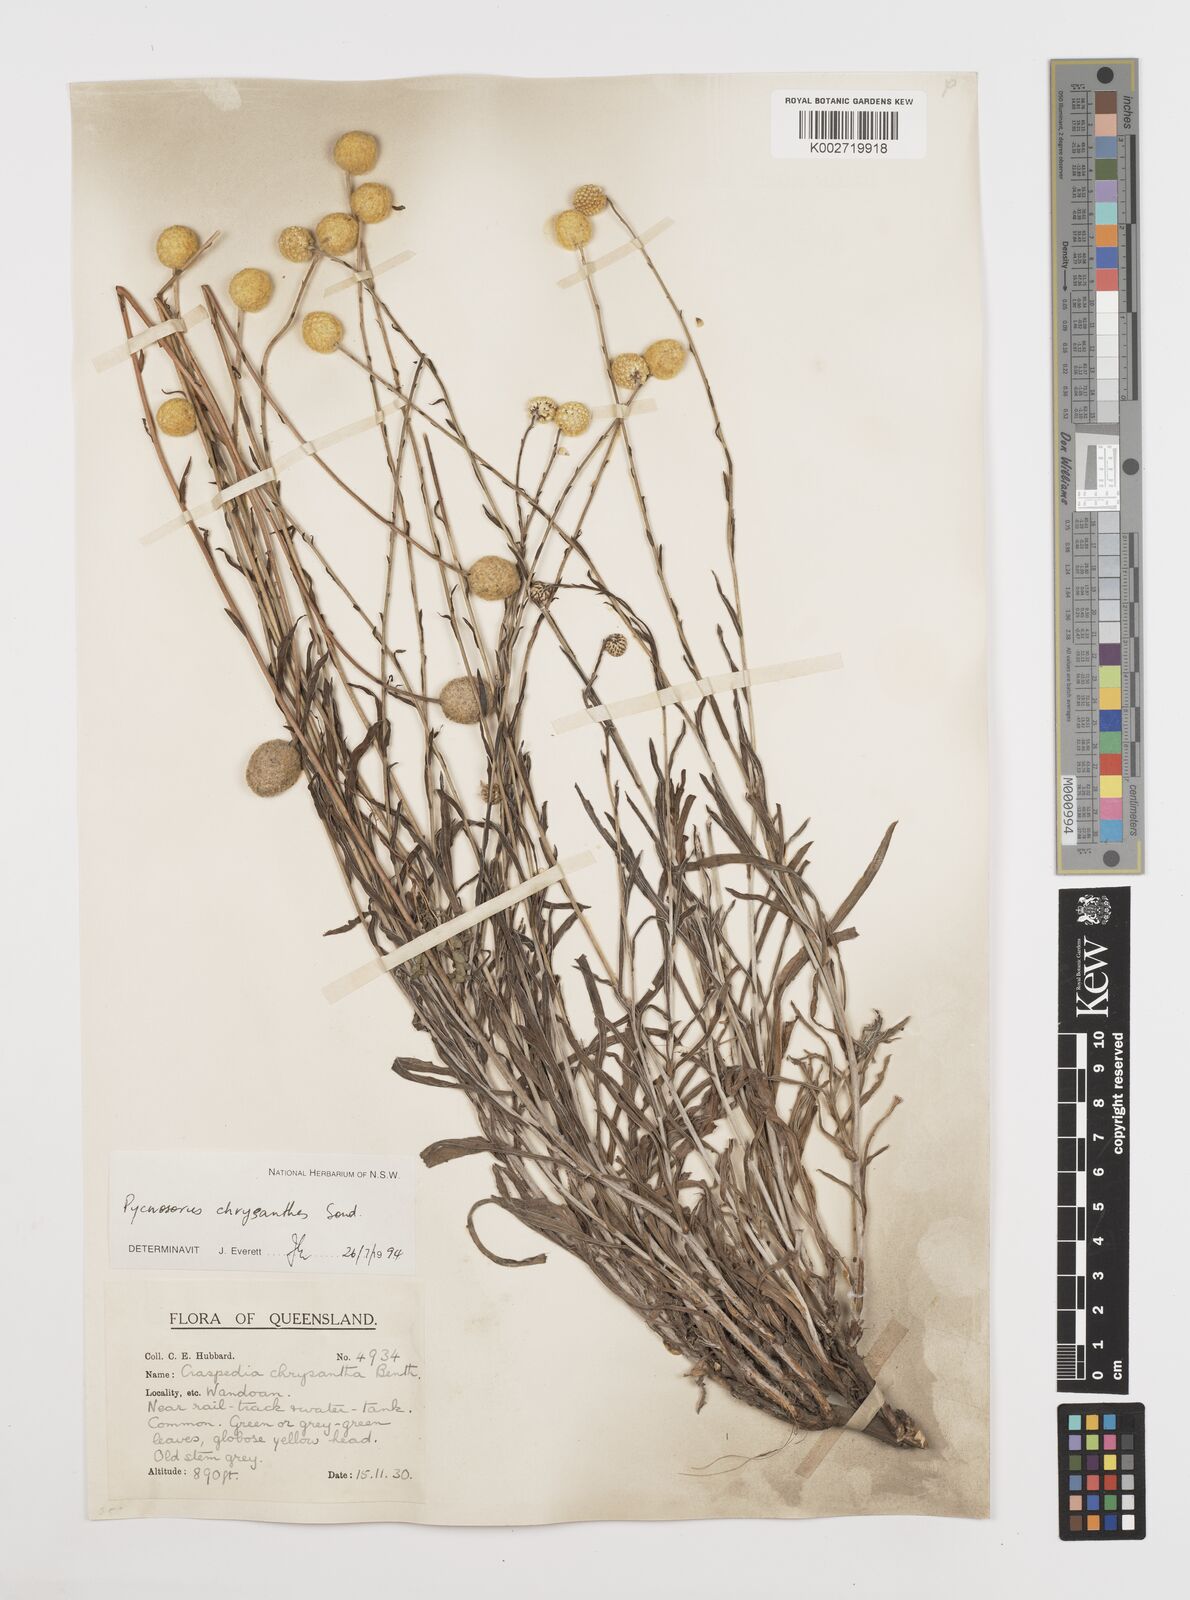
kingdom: Plantae
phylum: Tracheophyta
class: Magnoliopsida
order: Asterales
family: Asteraceae
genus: Pycnosorus
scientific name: Pycnosorus chrysanthus
